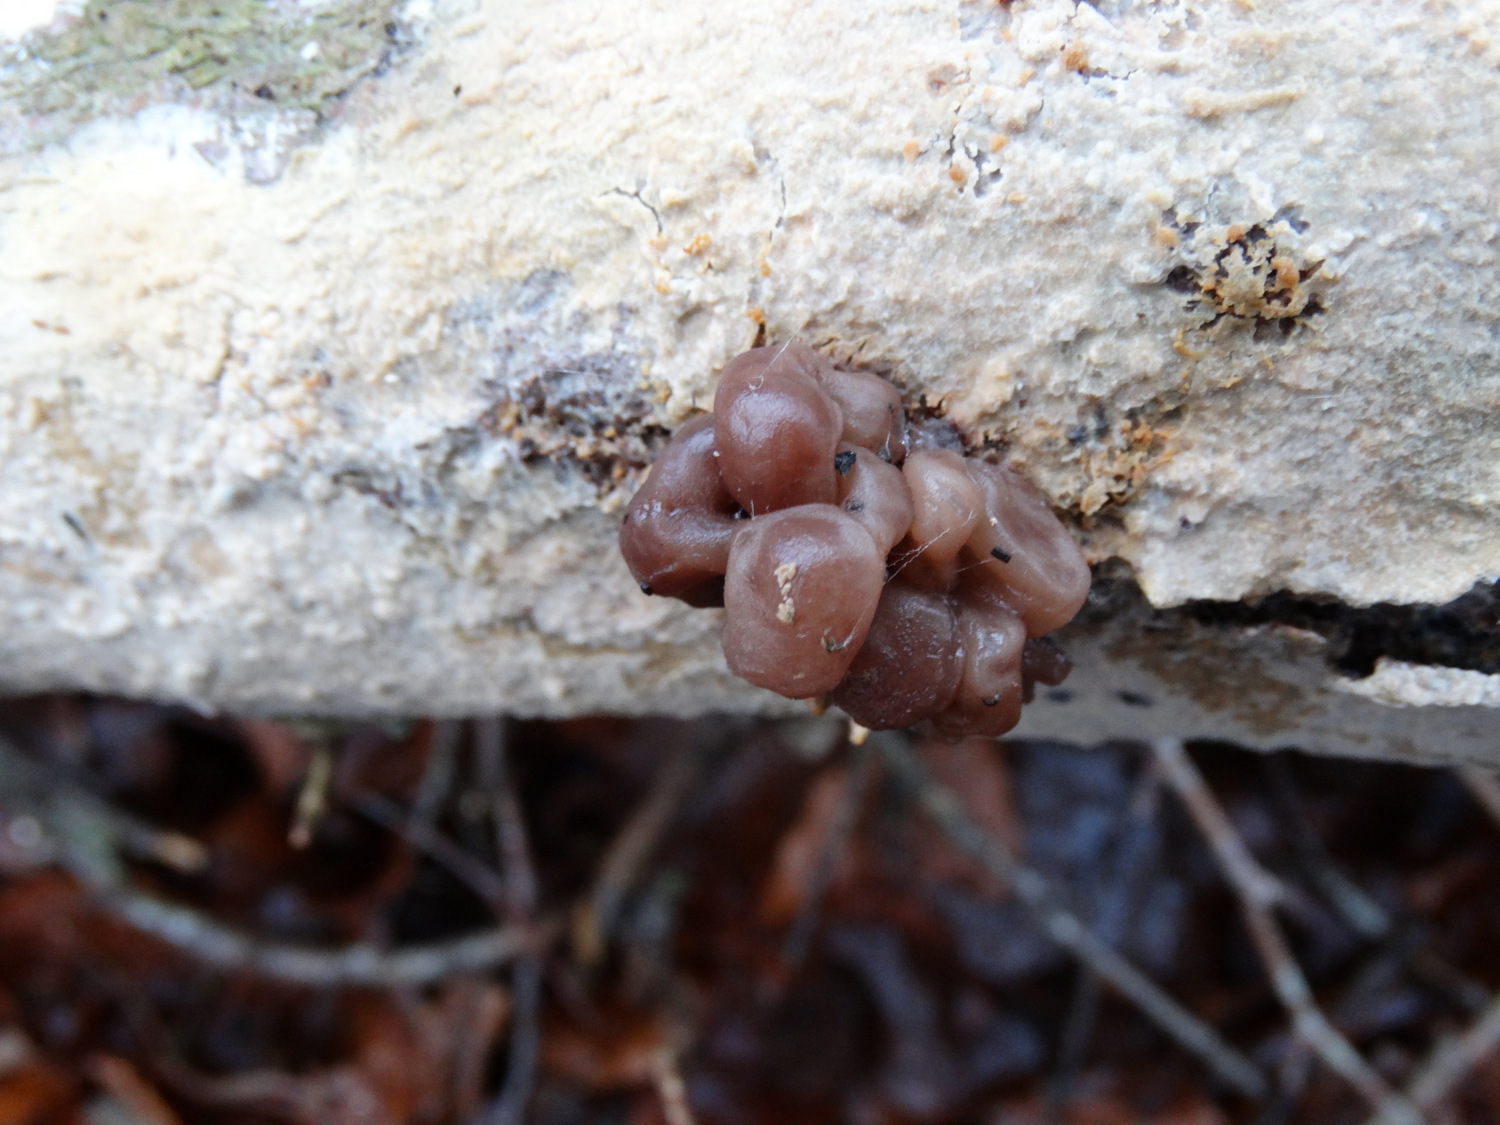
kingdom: Fungi
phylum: Ascomycota
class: Leotiomycetes
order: Helotiales
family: Gelatinodiscaceae
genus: Ascotremella
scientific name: Ascotremella faginea
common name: hjerne-bævreskive
